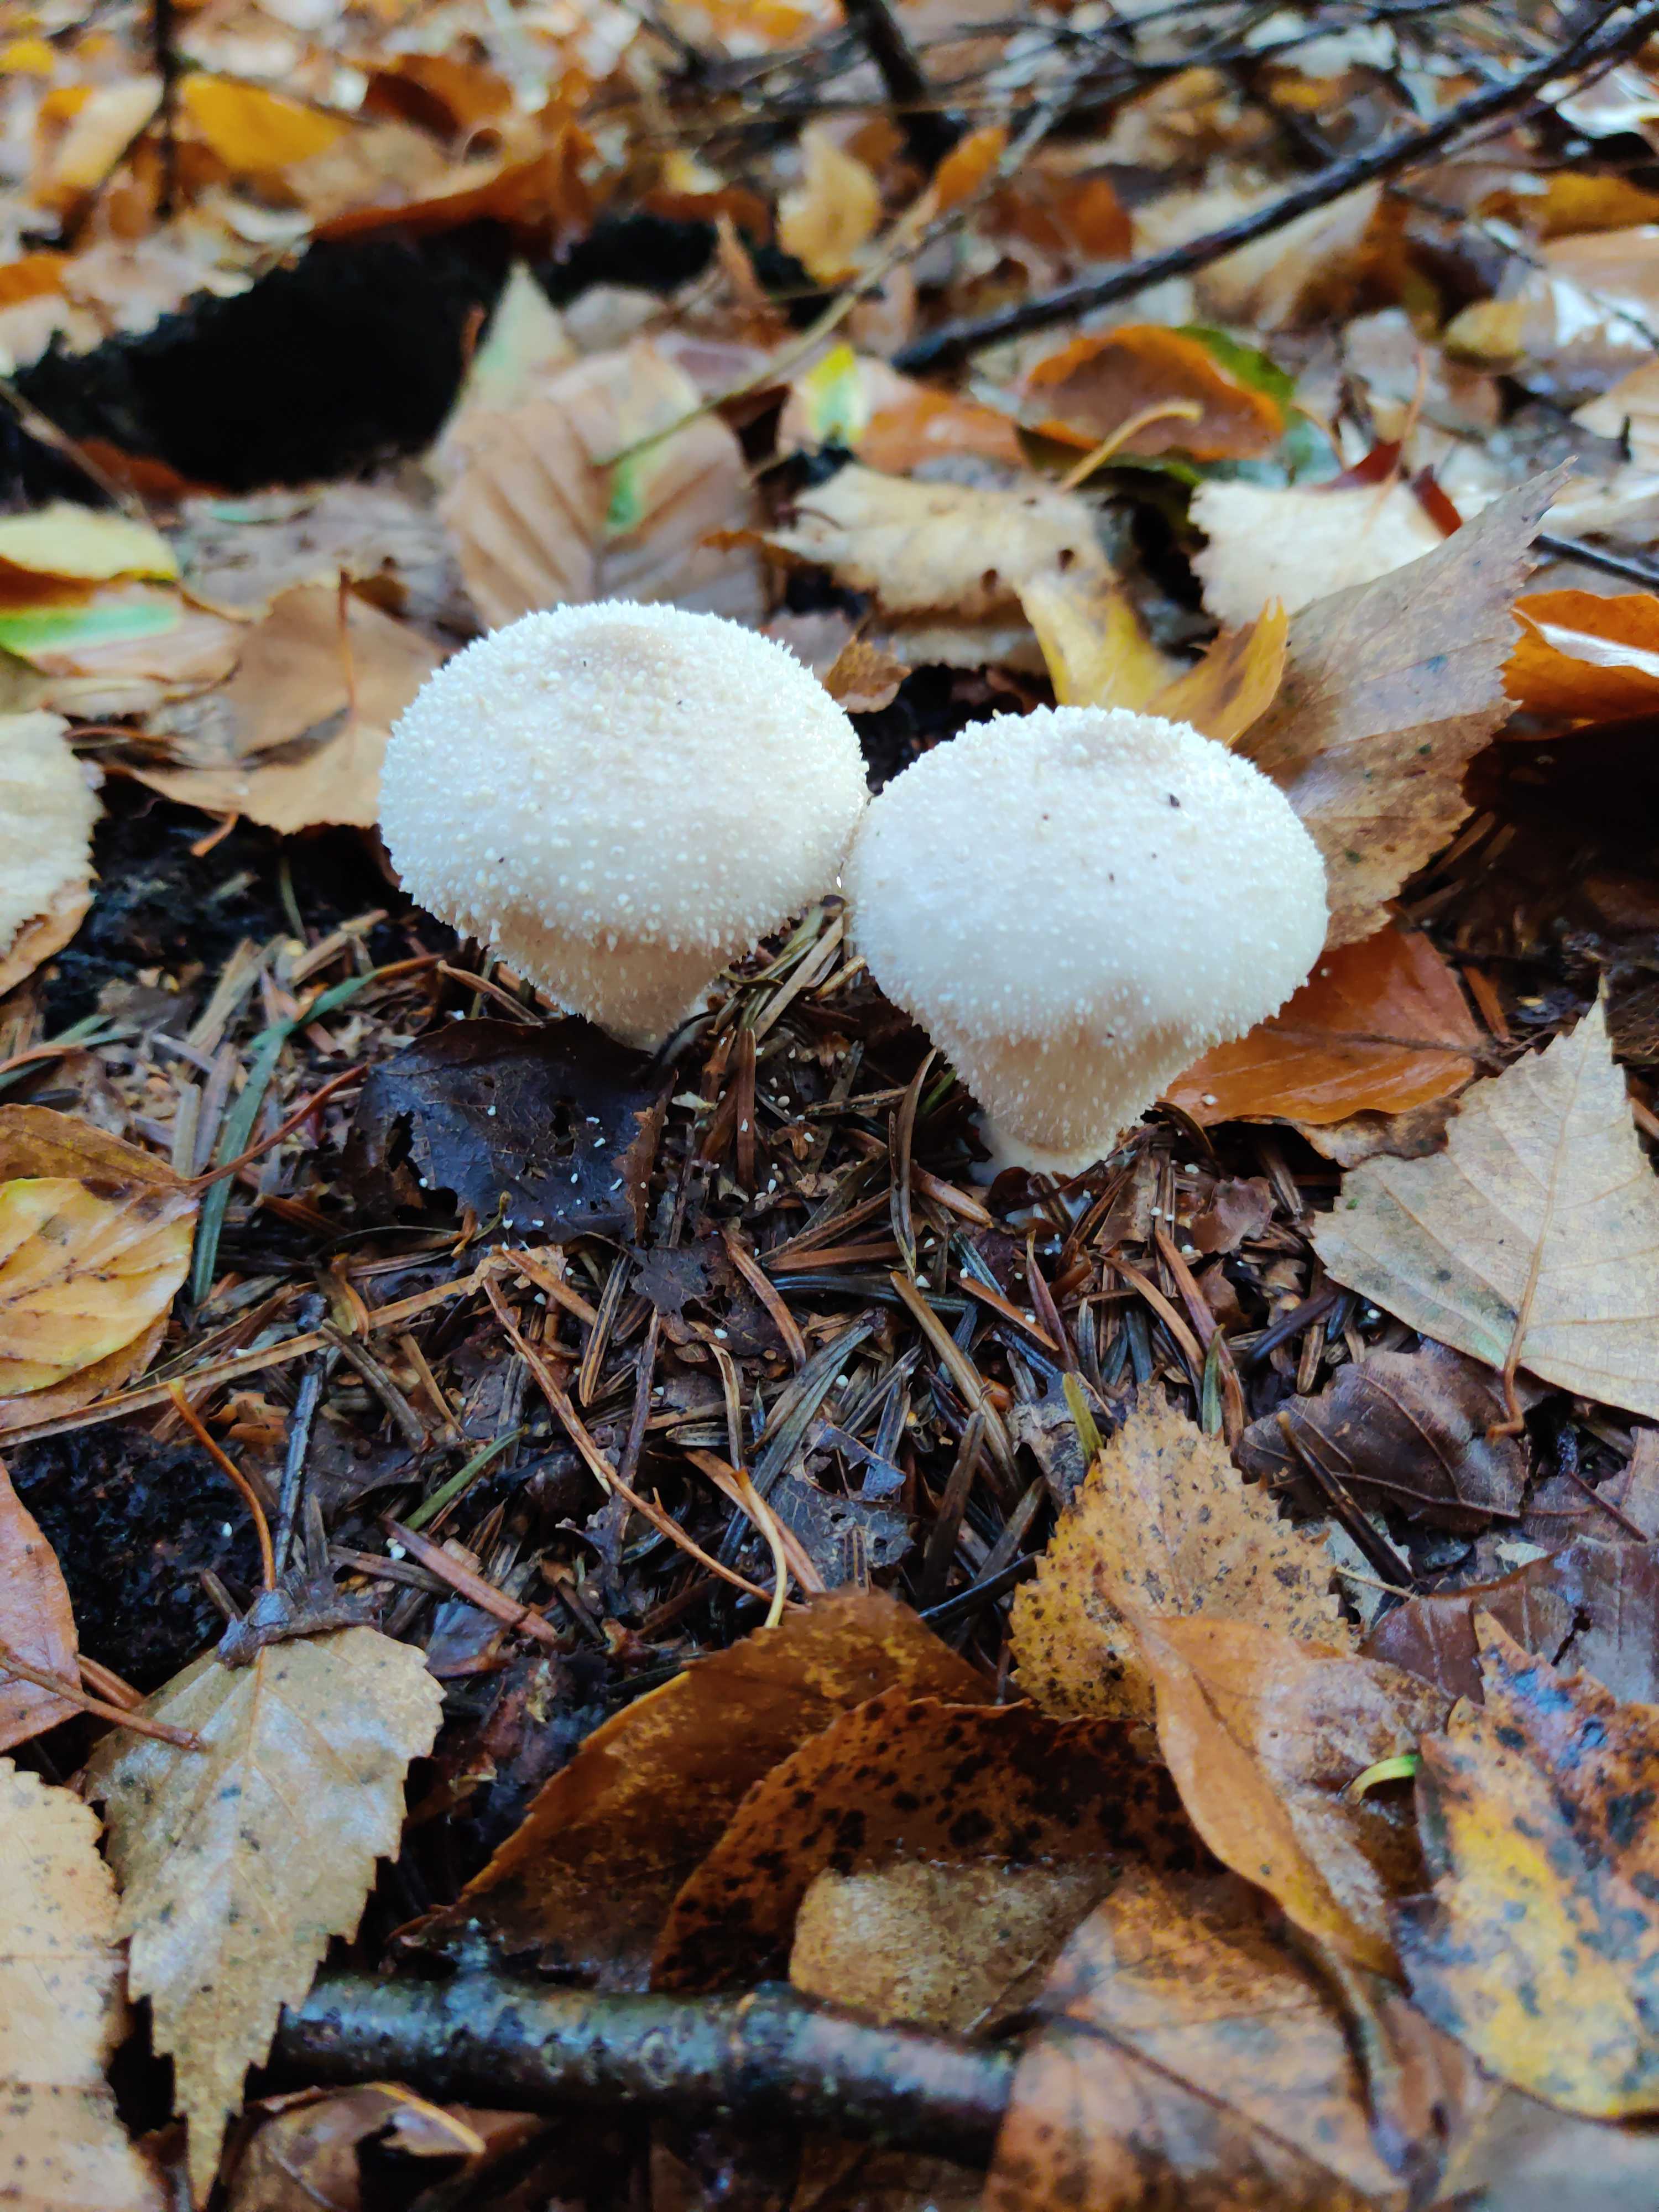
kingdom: Fungi
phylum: Basidiomycota
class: Agaricomycetes
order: Agaricales
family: Lycoperdaceae
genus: Lycoperdon
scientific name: Lycoperdon perlatum
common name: krystal-støvbold
